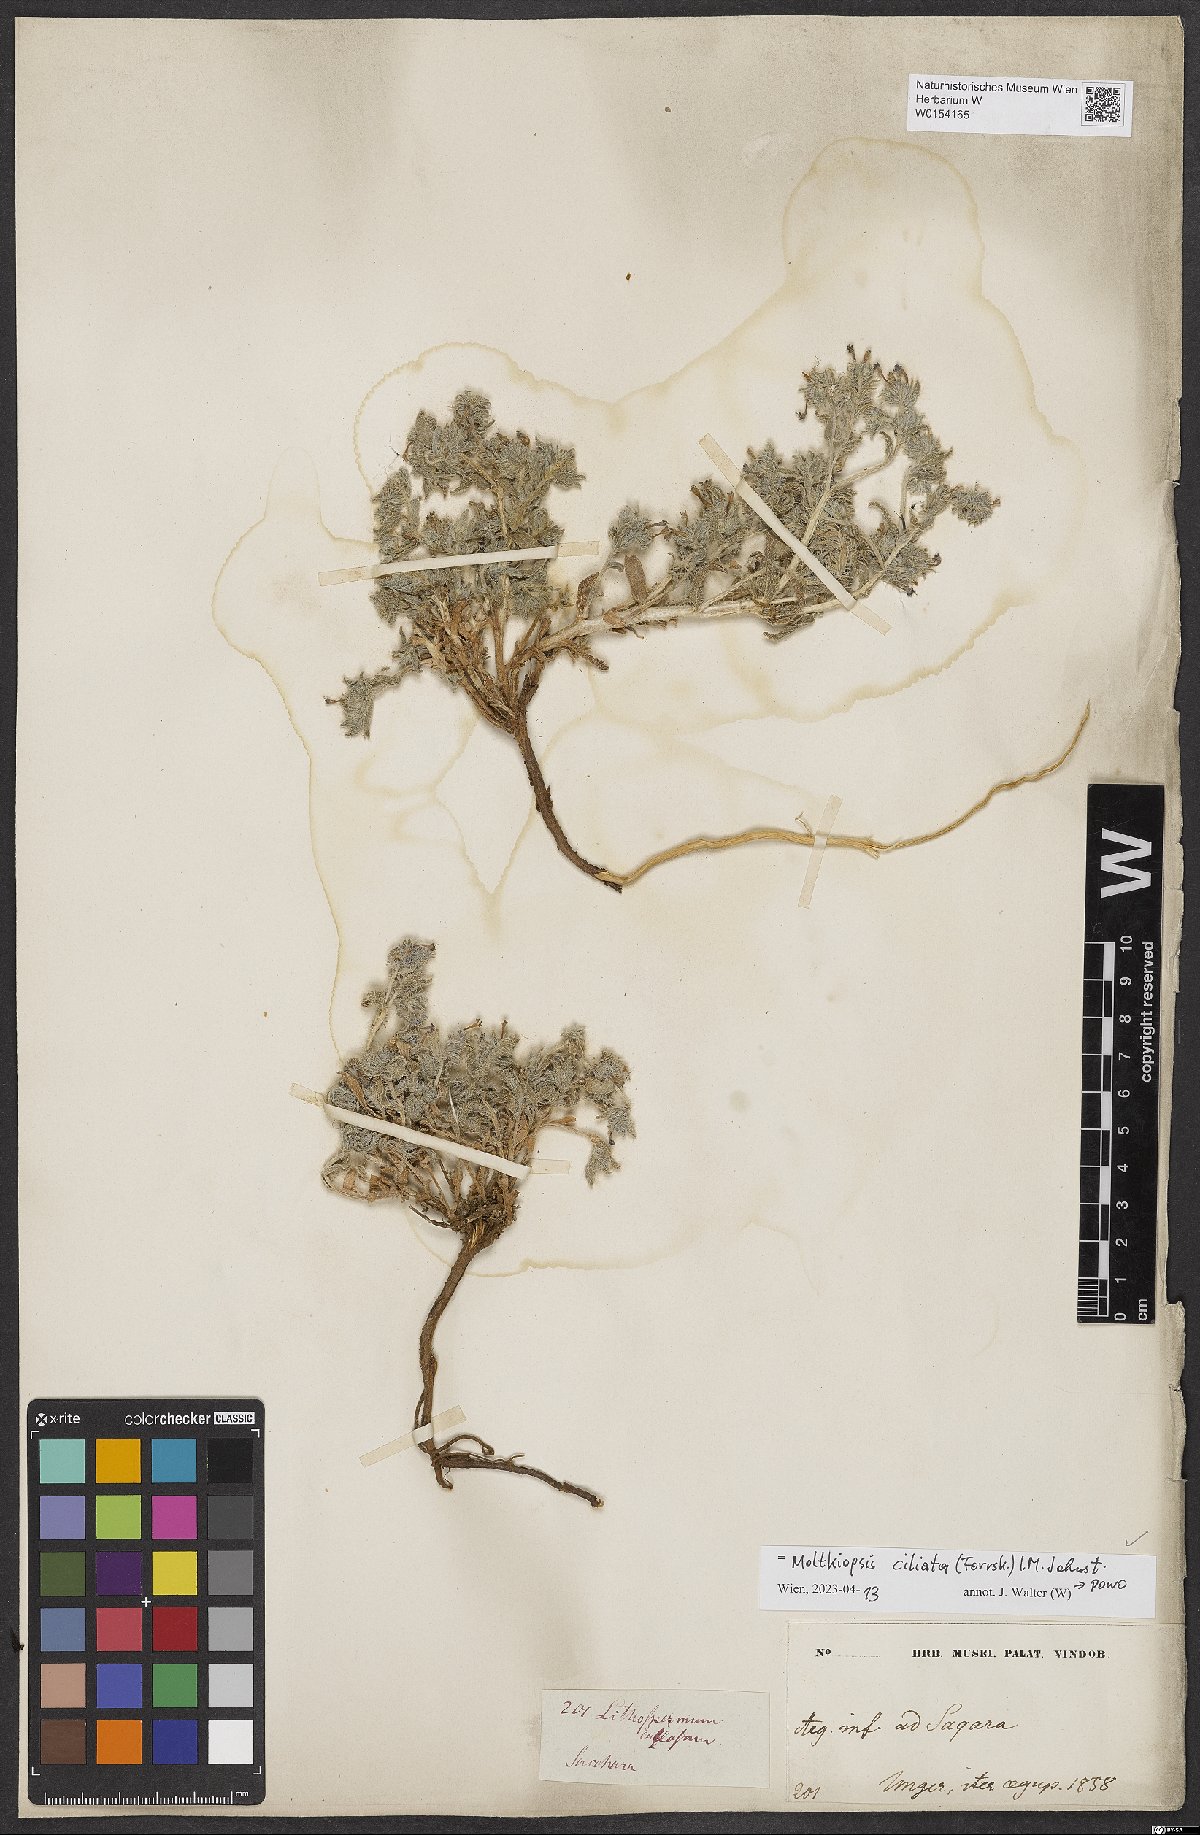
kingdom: Plantae
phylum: Tracheophyta
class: Magnoliopsida
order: Boraginales
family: Boraginaceae
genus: Moltkiopsis
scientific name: Moltkiopsis ciliata
